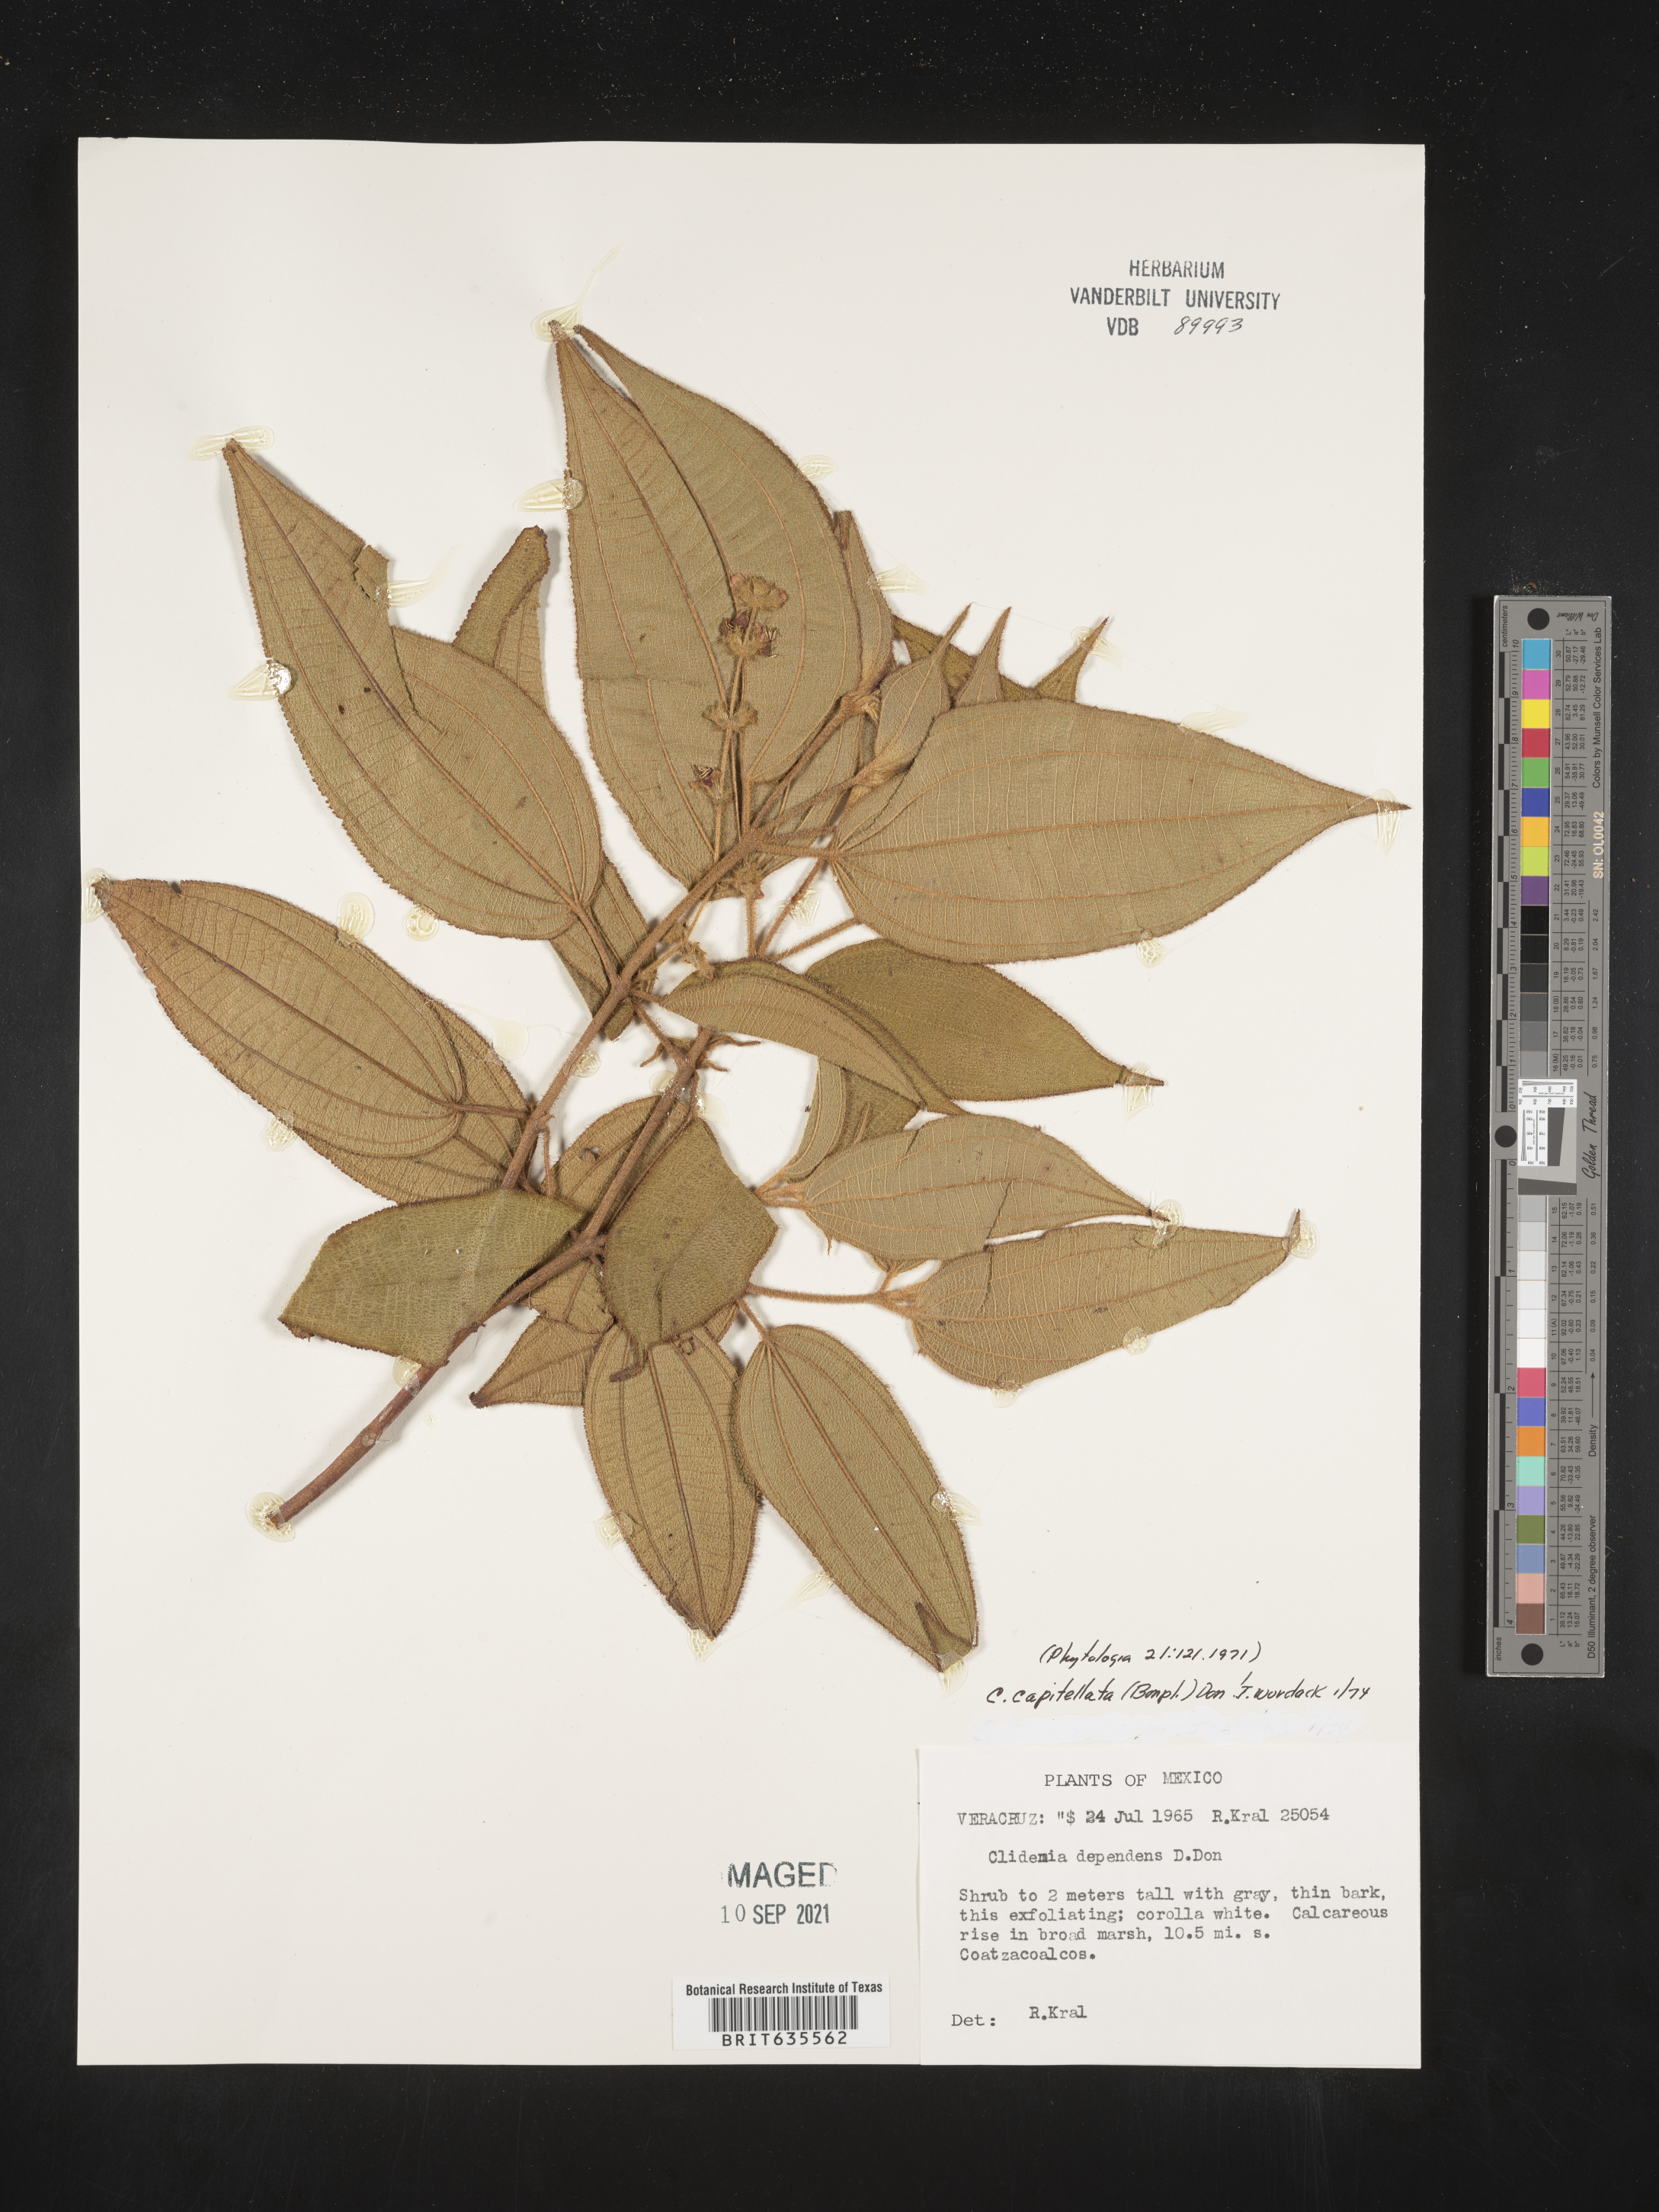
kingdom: Plantae
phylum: Tracheophyta
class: Magnoliopsida
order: Myrtales
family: Melastomataceae
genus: Miconia
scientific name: Miconia
